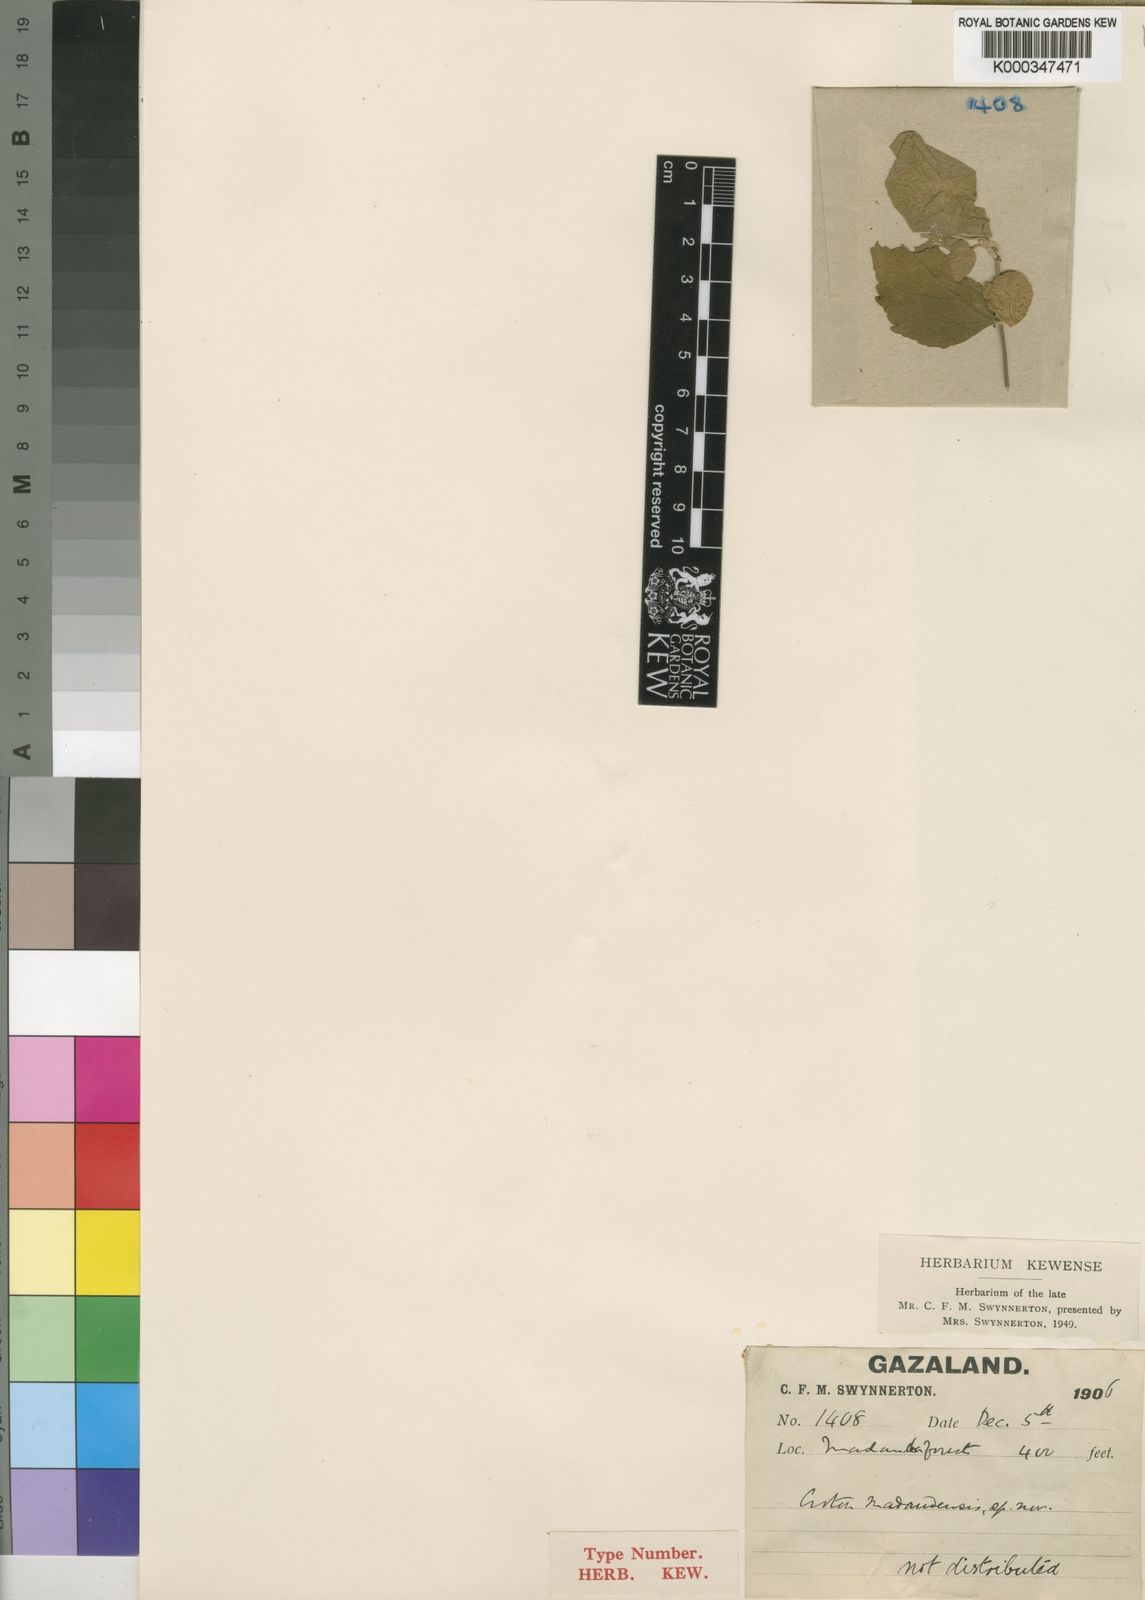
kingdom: Plantae
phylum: Tracheophyta
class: Magnoliopsida
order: Malpighiales
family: Euphorbiaceae
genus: Croton
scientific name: Croton madandensis
